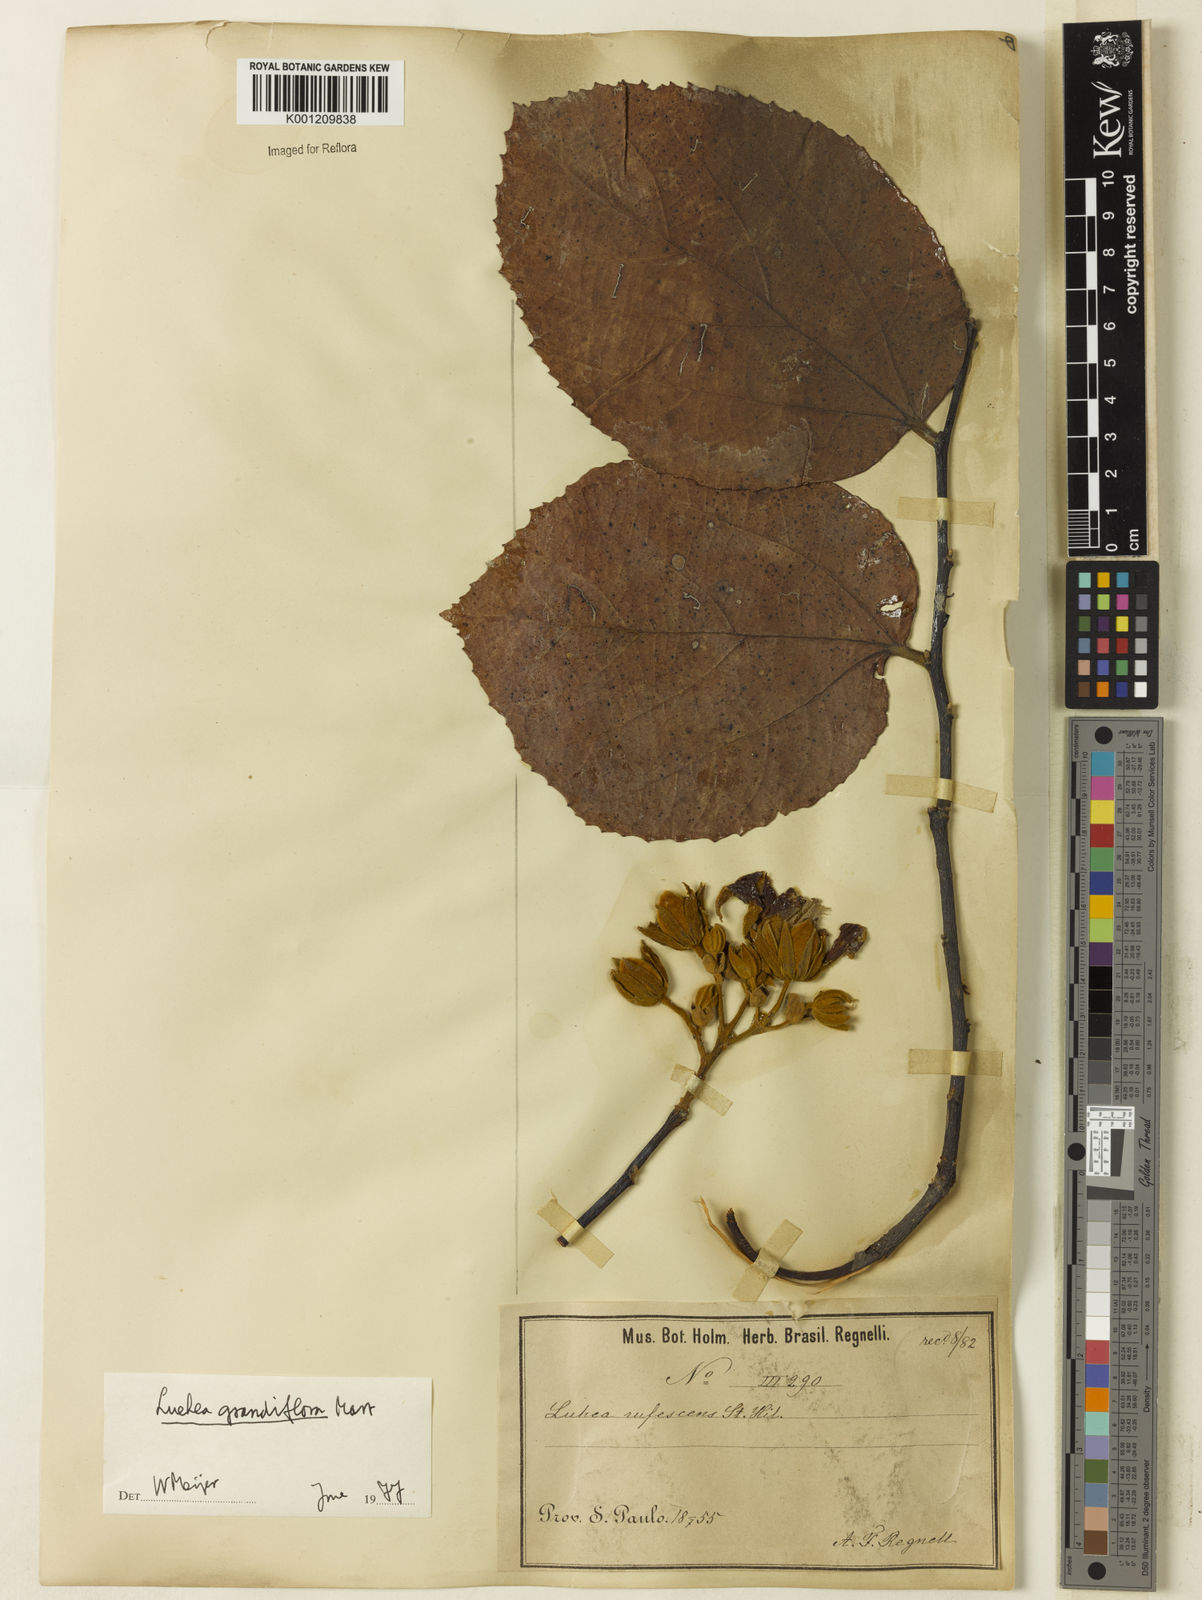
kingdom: Plantae
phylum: Tracheophyta
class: Magnoliopsida
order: Malvales
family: Malvaceae
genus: Luehea
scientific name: Luehea grandiflora
